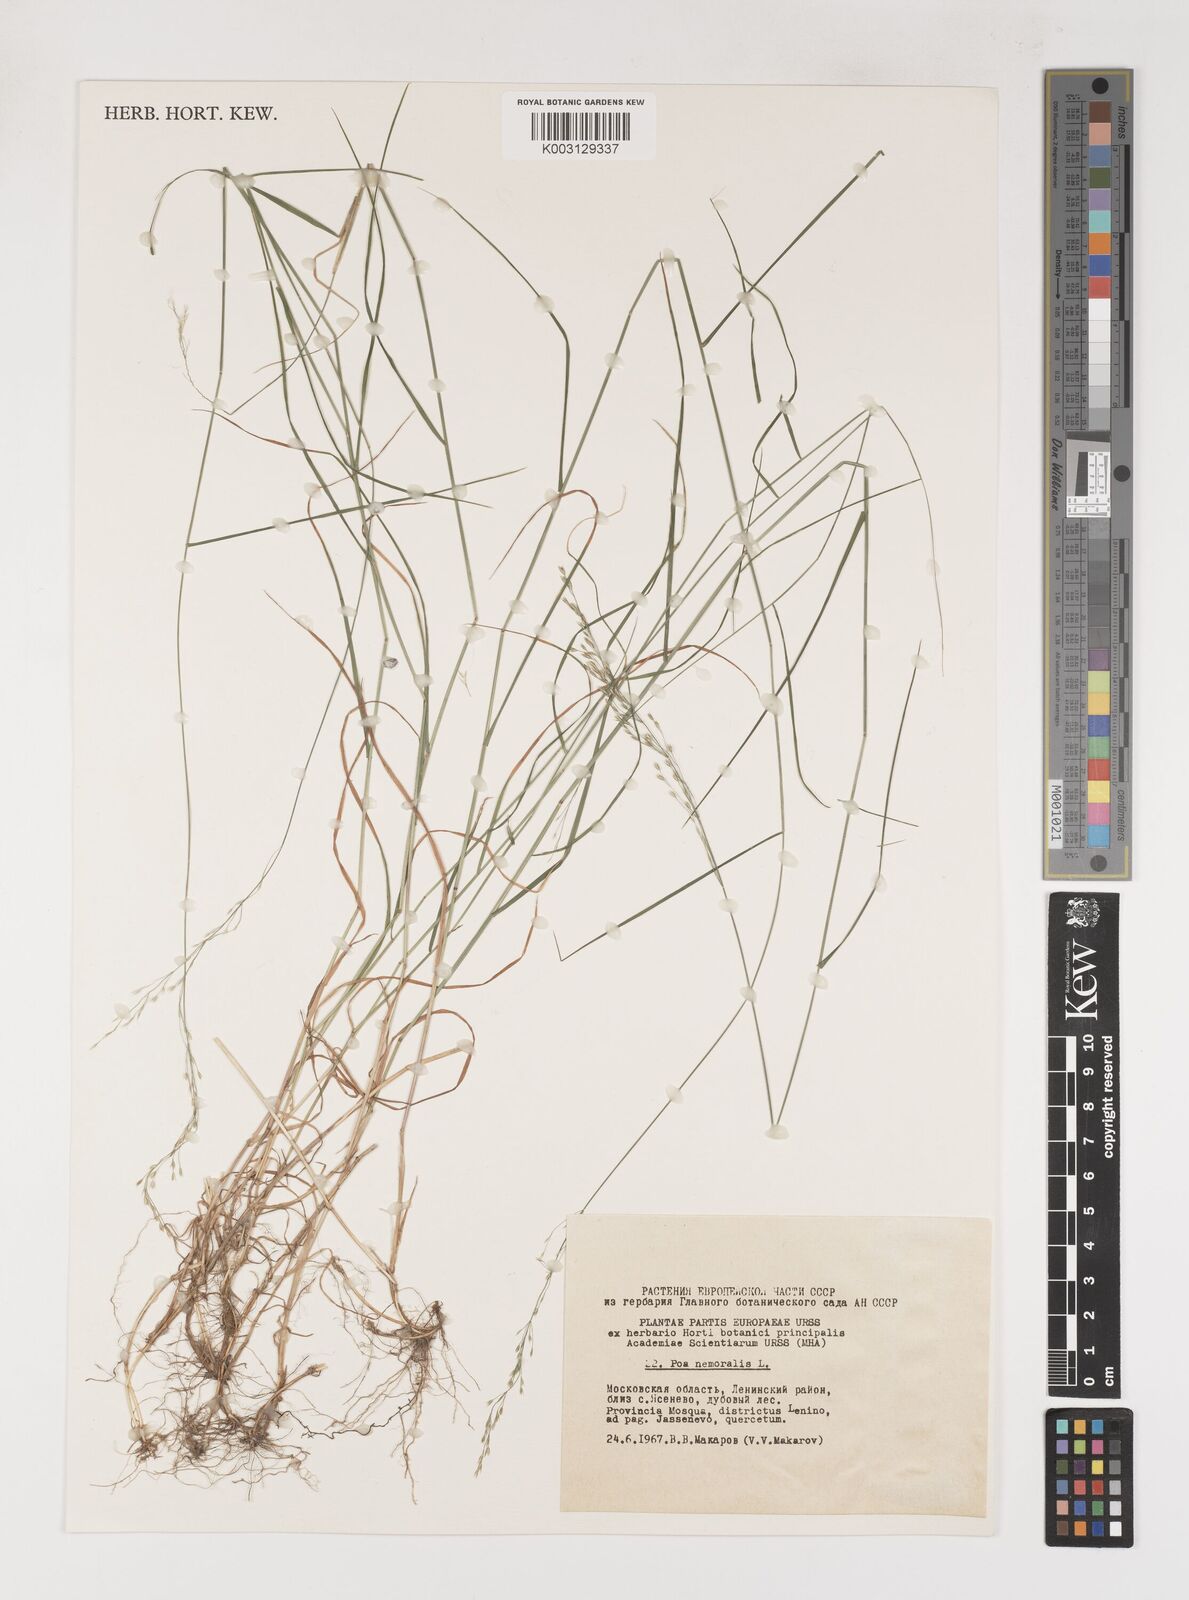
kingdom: Plantae
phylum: Tracheophyta
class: Liliopsida
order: Poales
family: Poaceae
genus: Poa
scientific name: Poa nemoralis
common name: Wood bluegrass
